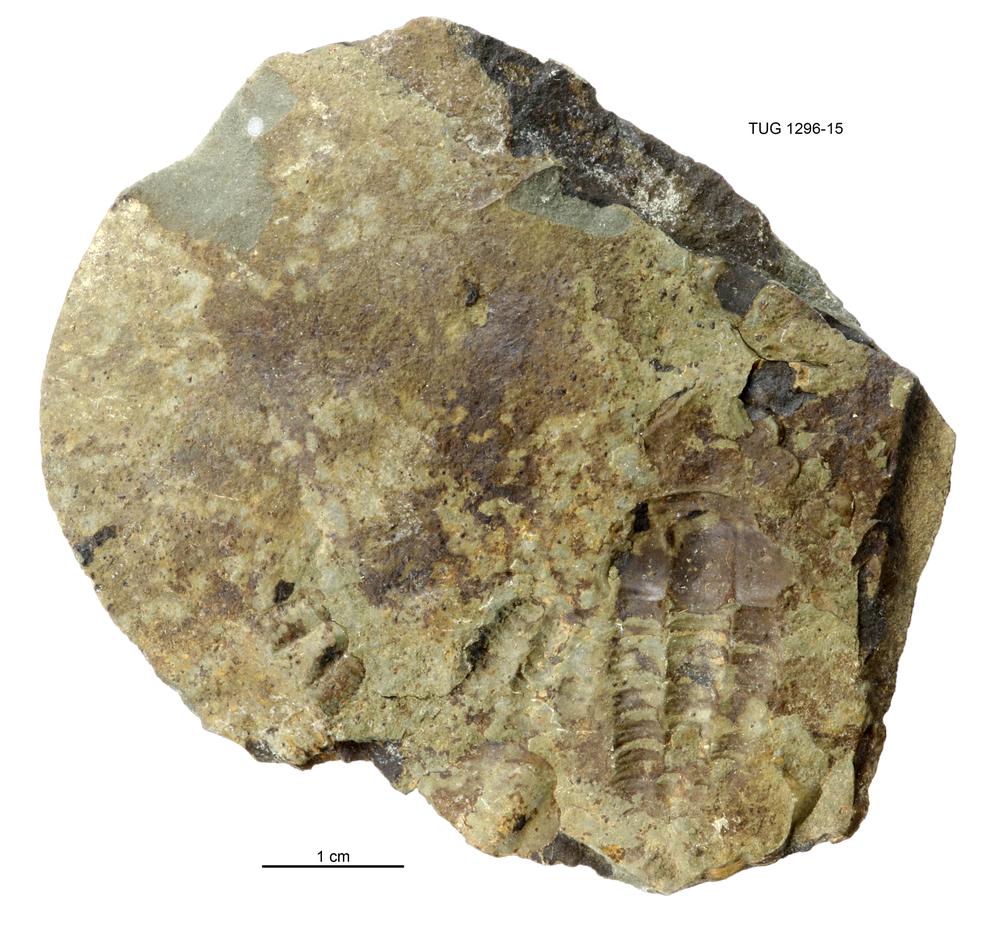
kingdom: Animalia
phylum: Arthropoda
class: Trilobita
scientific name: Trilobita
